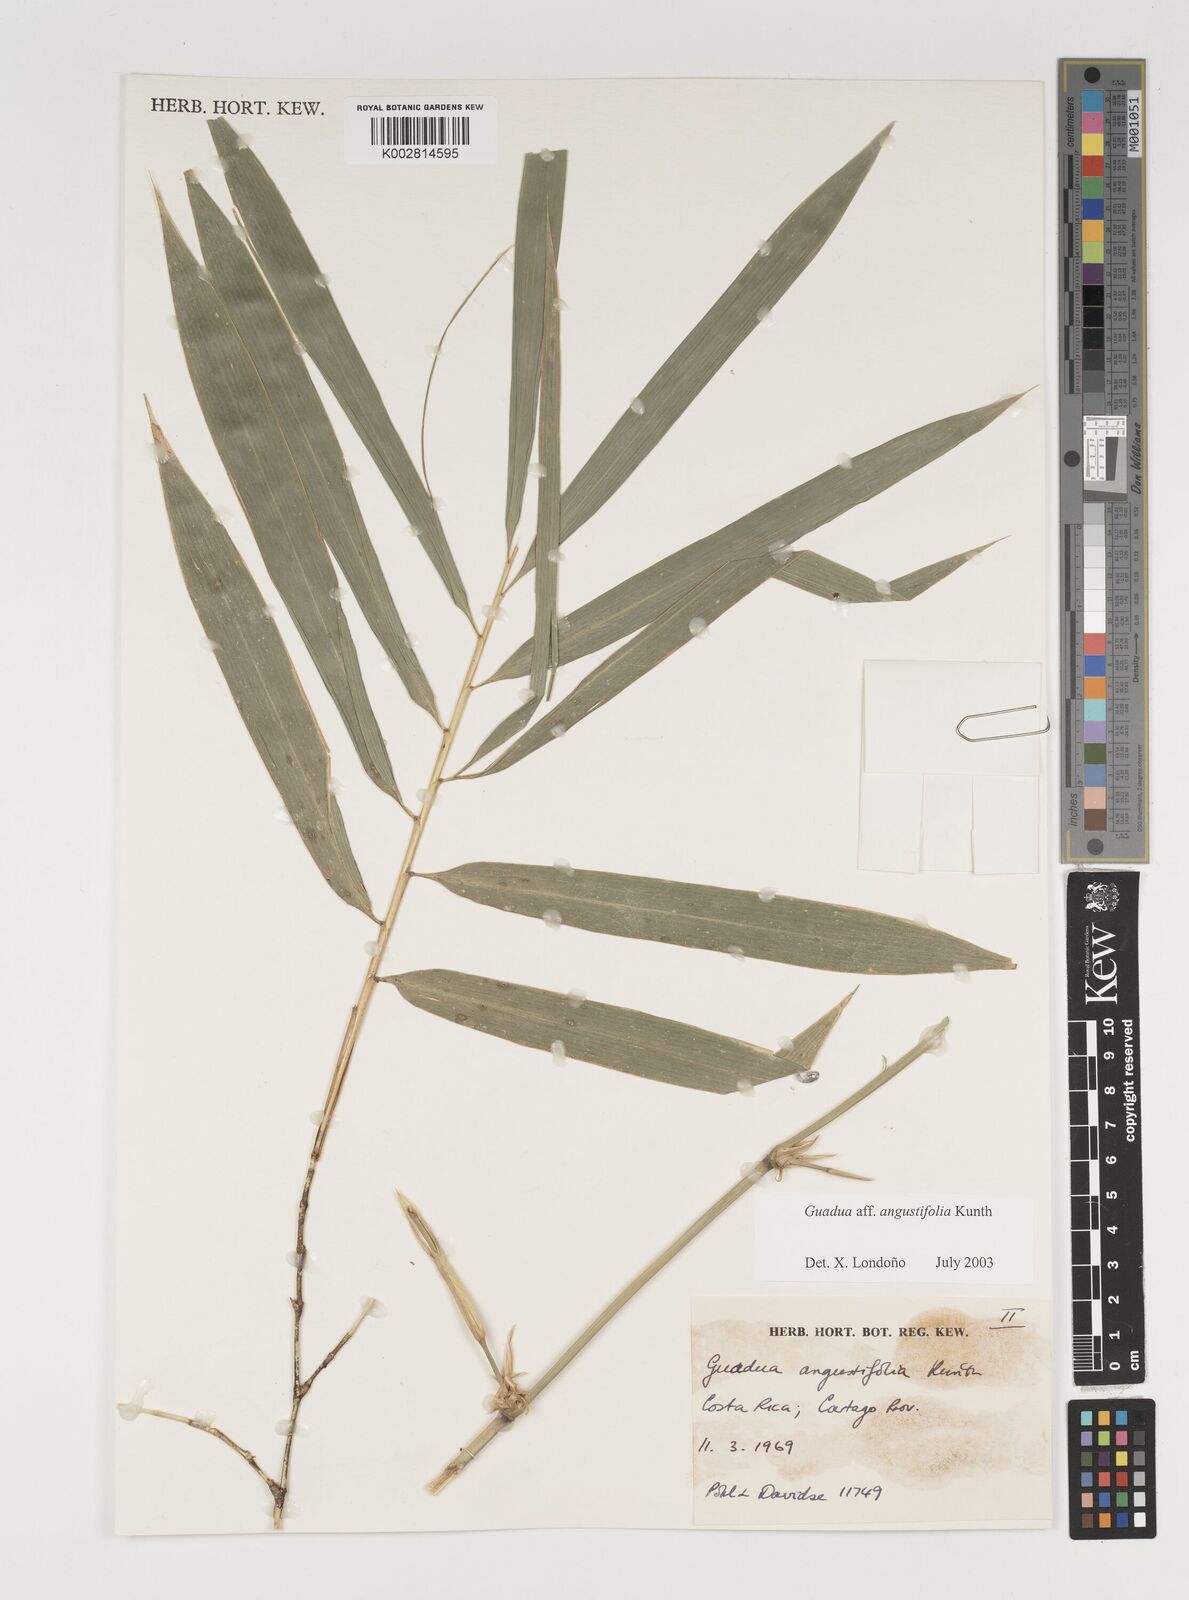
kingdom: Plantae
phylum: Tracheophyta
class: Liliopsida
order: Poales
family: Poaceae
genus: Guadua
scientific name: Guadua angustifolia
